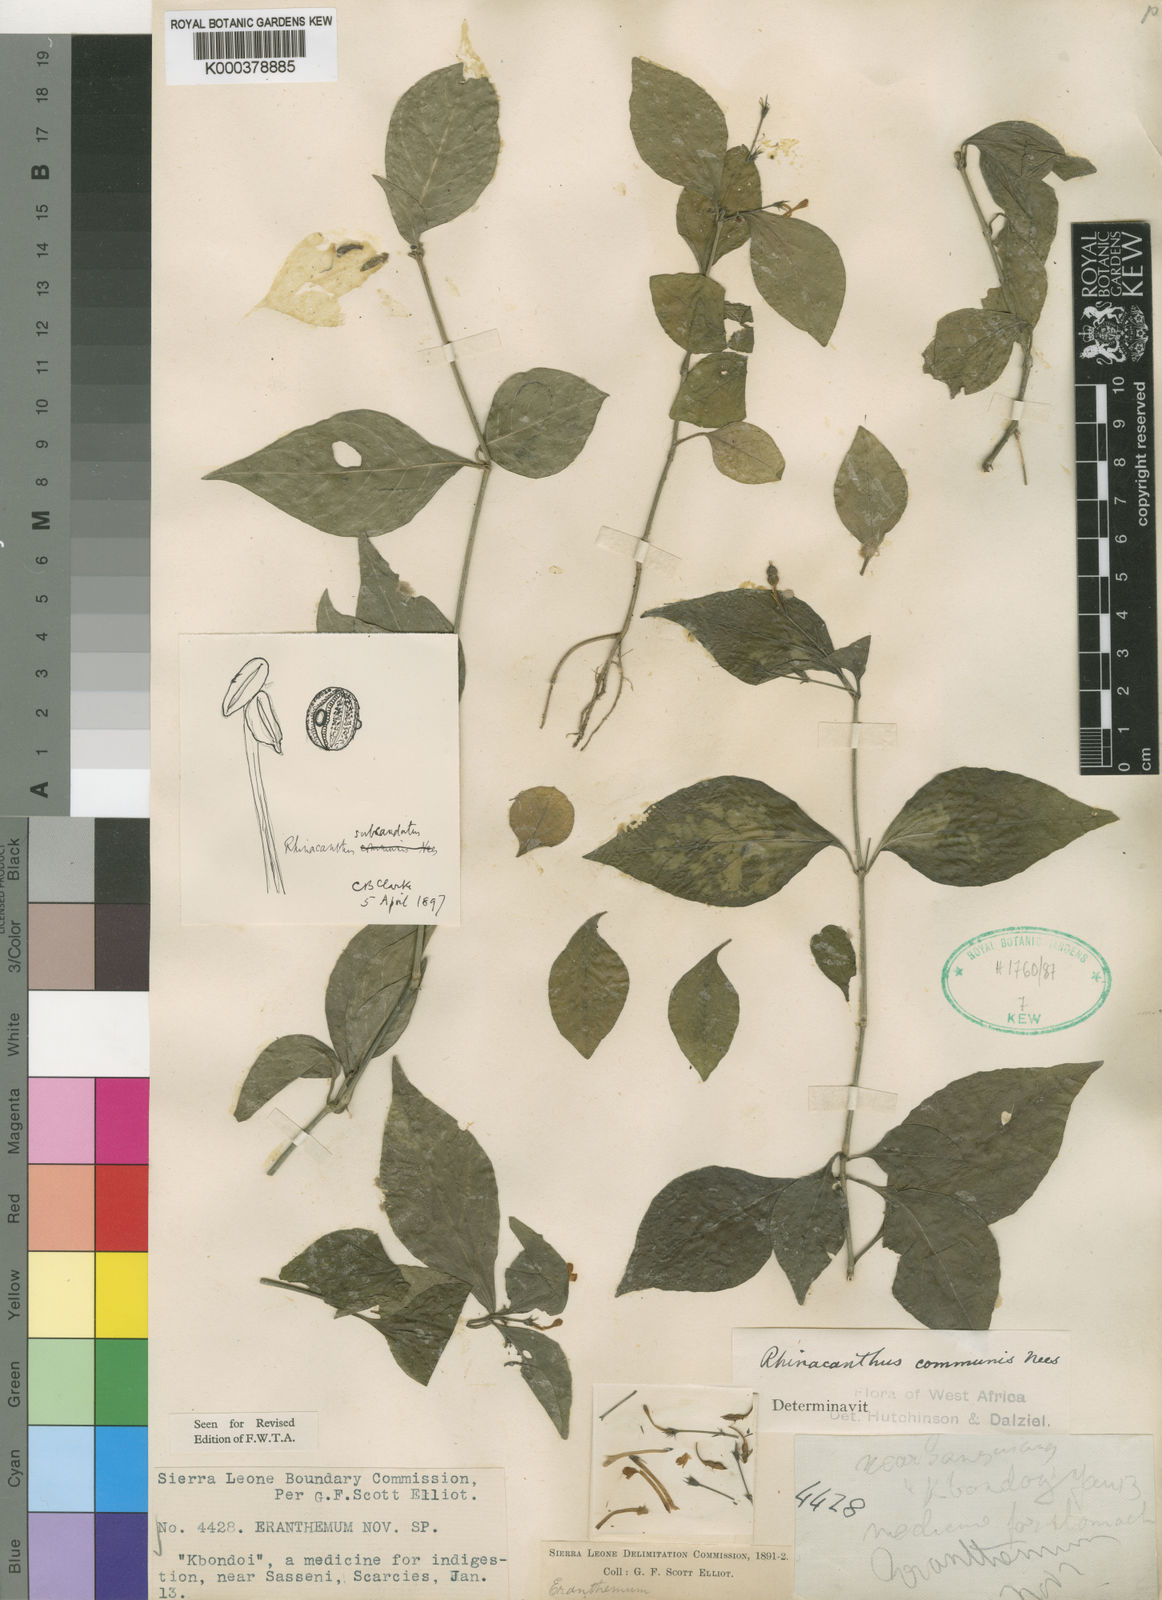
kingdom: Plantae
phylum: Tracheophyta
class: Magnoliopsida
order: Lamiales
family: Acanthaceae
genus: Rhinacanthus
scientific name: Rhinacanthus virens
